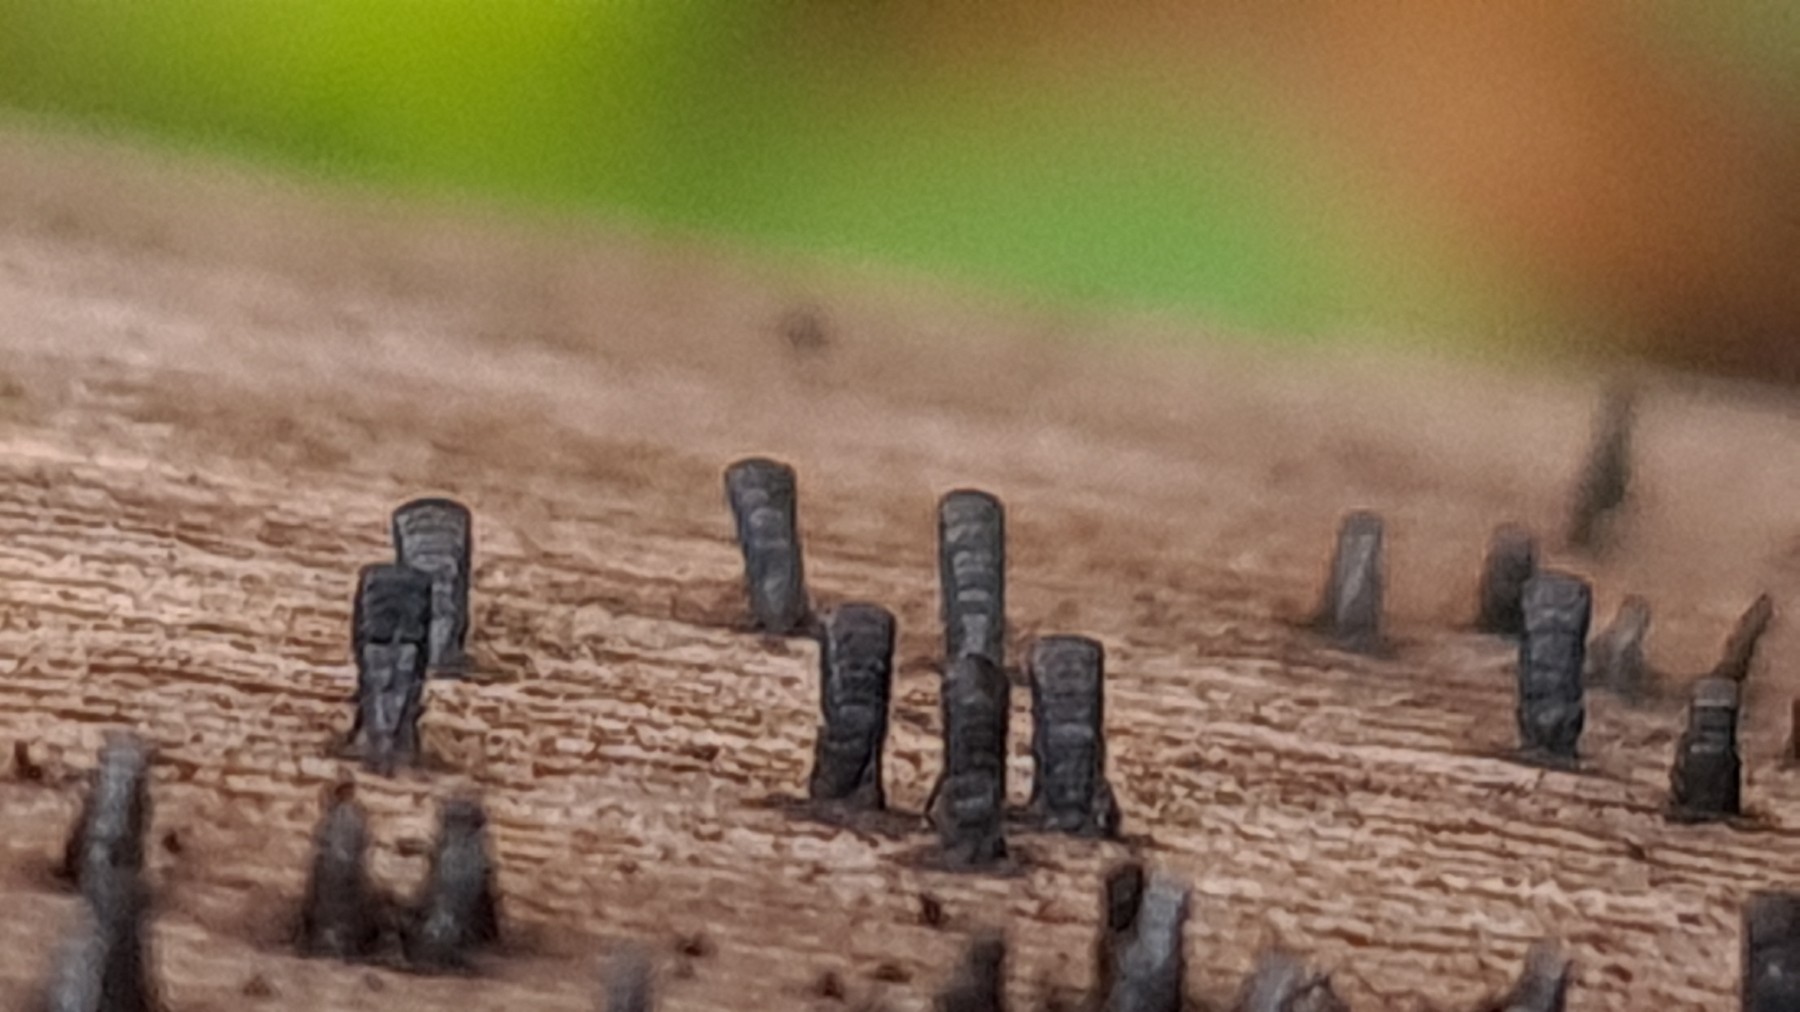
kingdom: Fungi
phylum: Ascomycota
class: Eurotiomycetes
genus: Glyphium
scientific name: Glyphium elatum
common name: kuløkse
